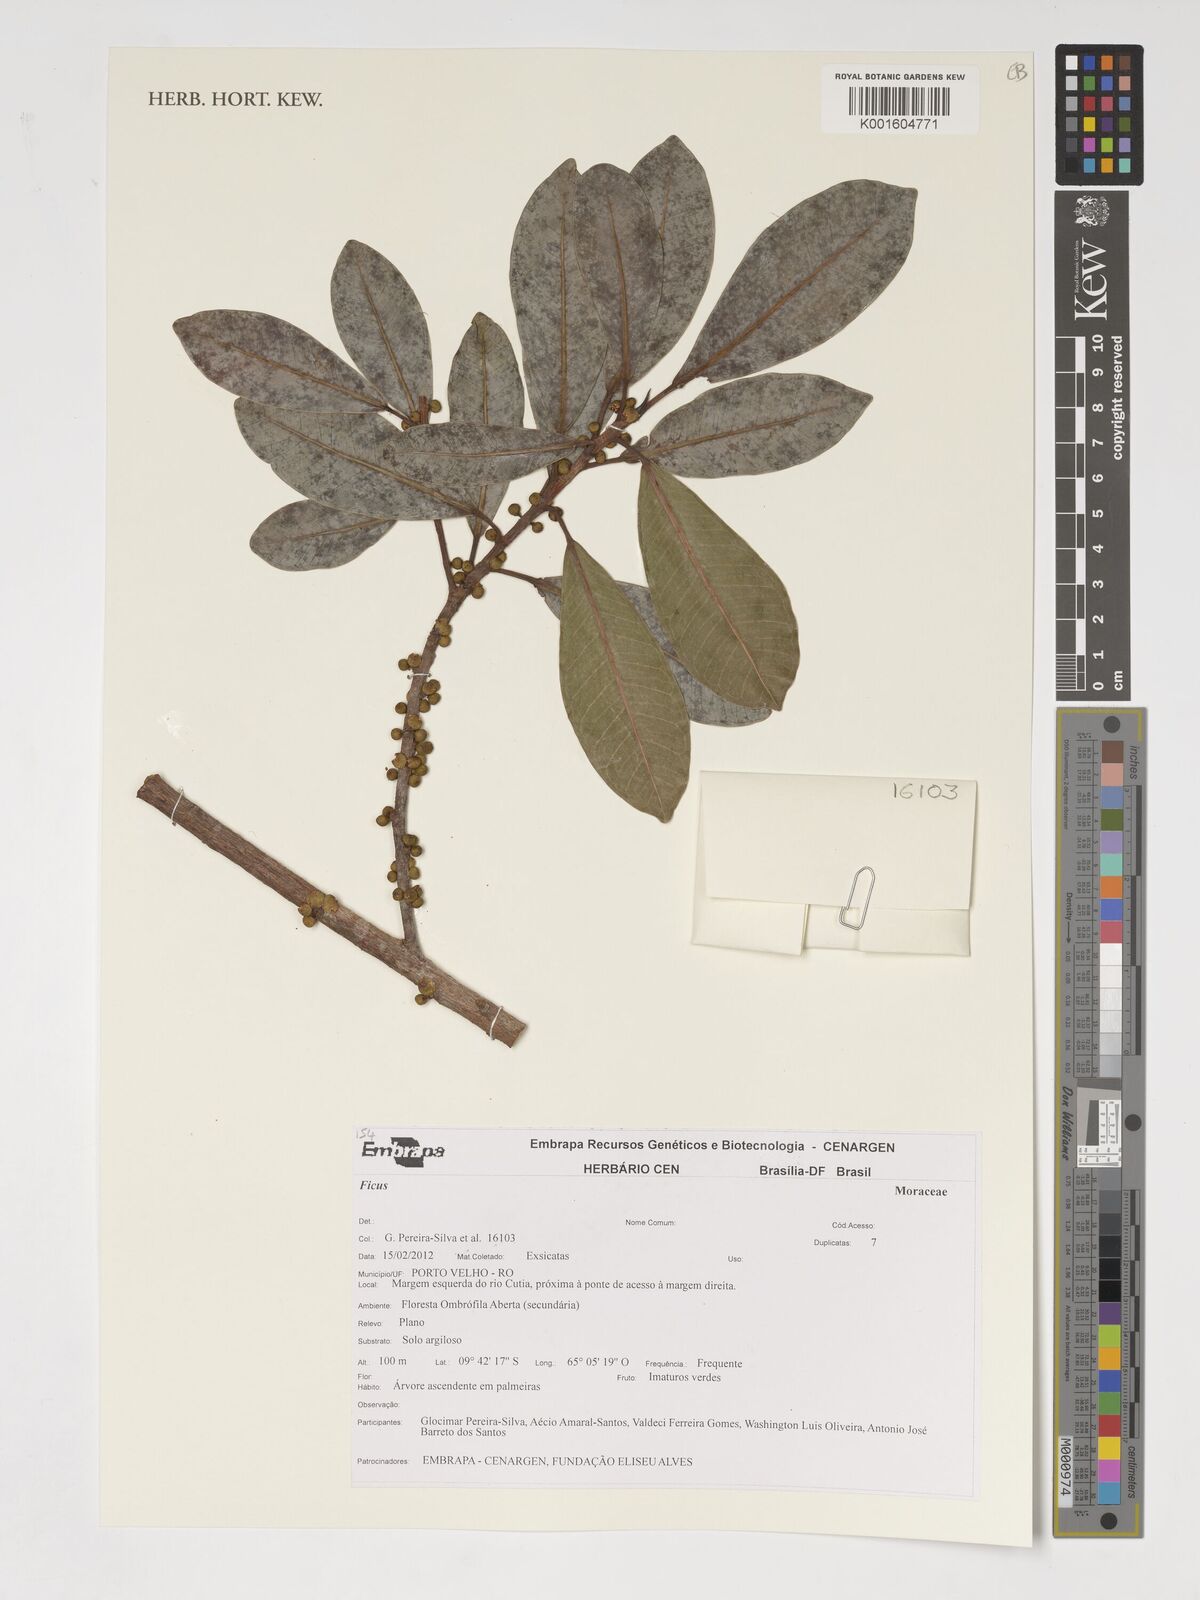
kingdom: Plantae
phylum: Tracheophyta
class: Magnoliopsida
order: Rosales
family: Moraceae
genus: Ficus
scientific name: Ficus
